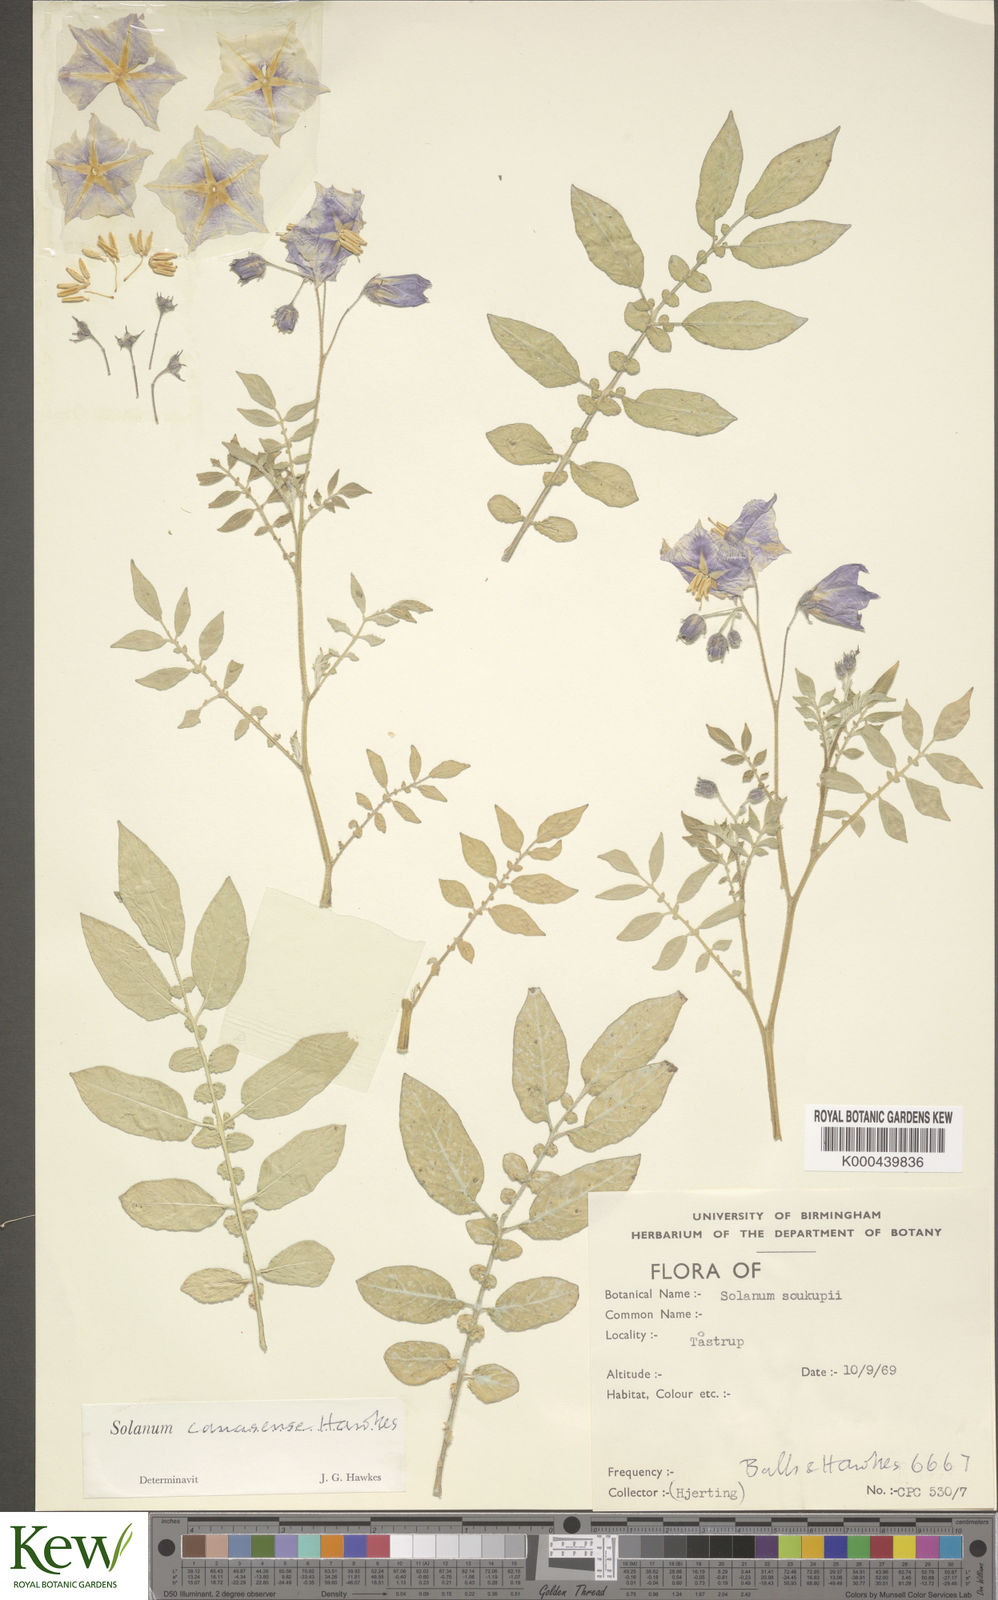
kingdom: Plantae
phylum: Tracheophyta
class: Magnoliopsida
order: Solanales
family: Solanaceae
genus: Solanum
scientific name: Solanum candolleanum
